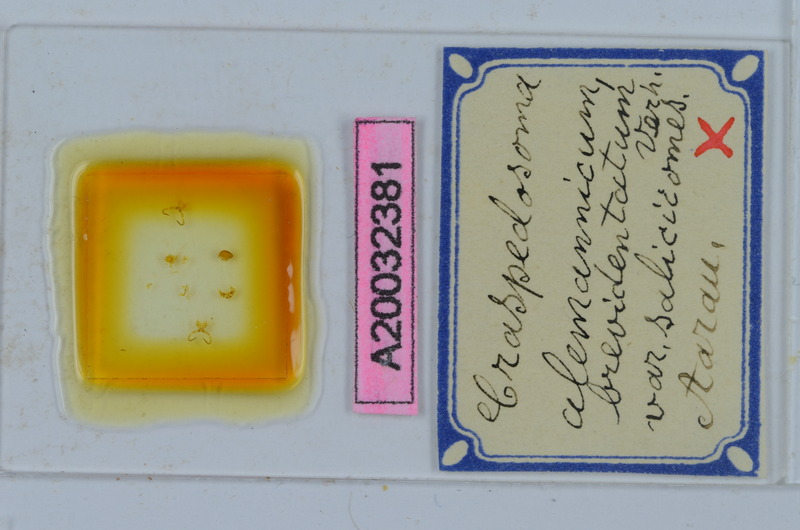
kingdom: Animalia
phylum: Arthropoda
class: Diplopoda
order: Chordeumatida
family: Craspedosomatidae
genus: Craspedosoma
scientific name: Craspedosoma rawlinsii
